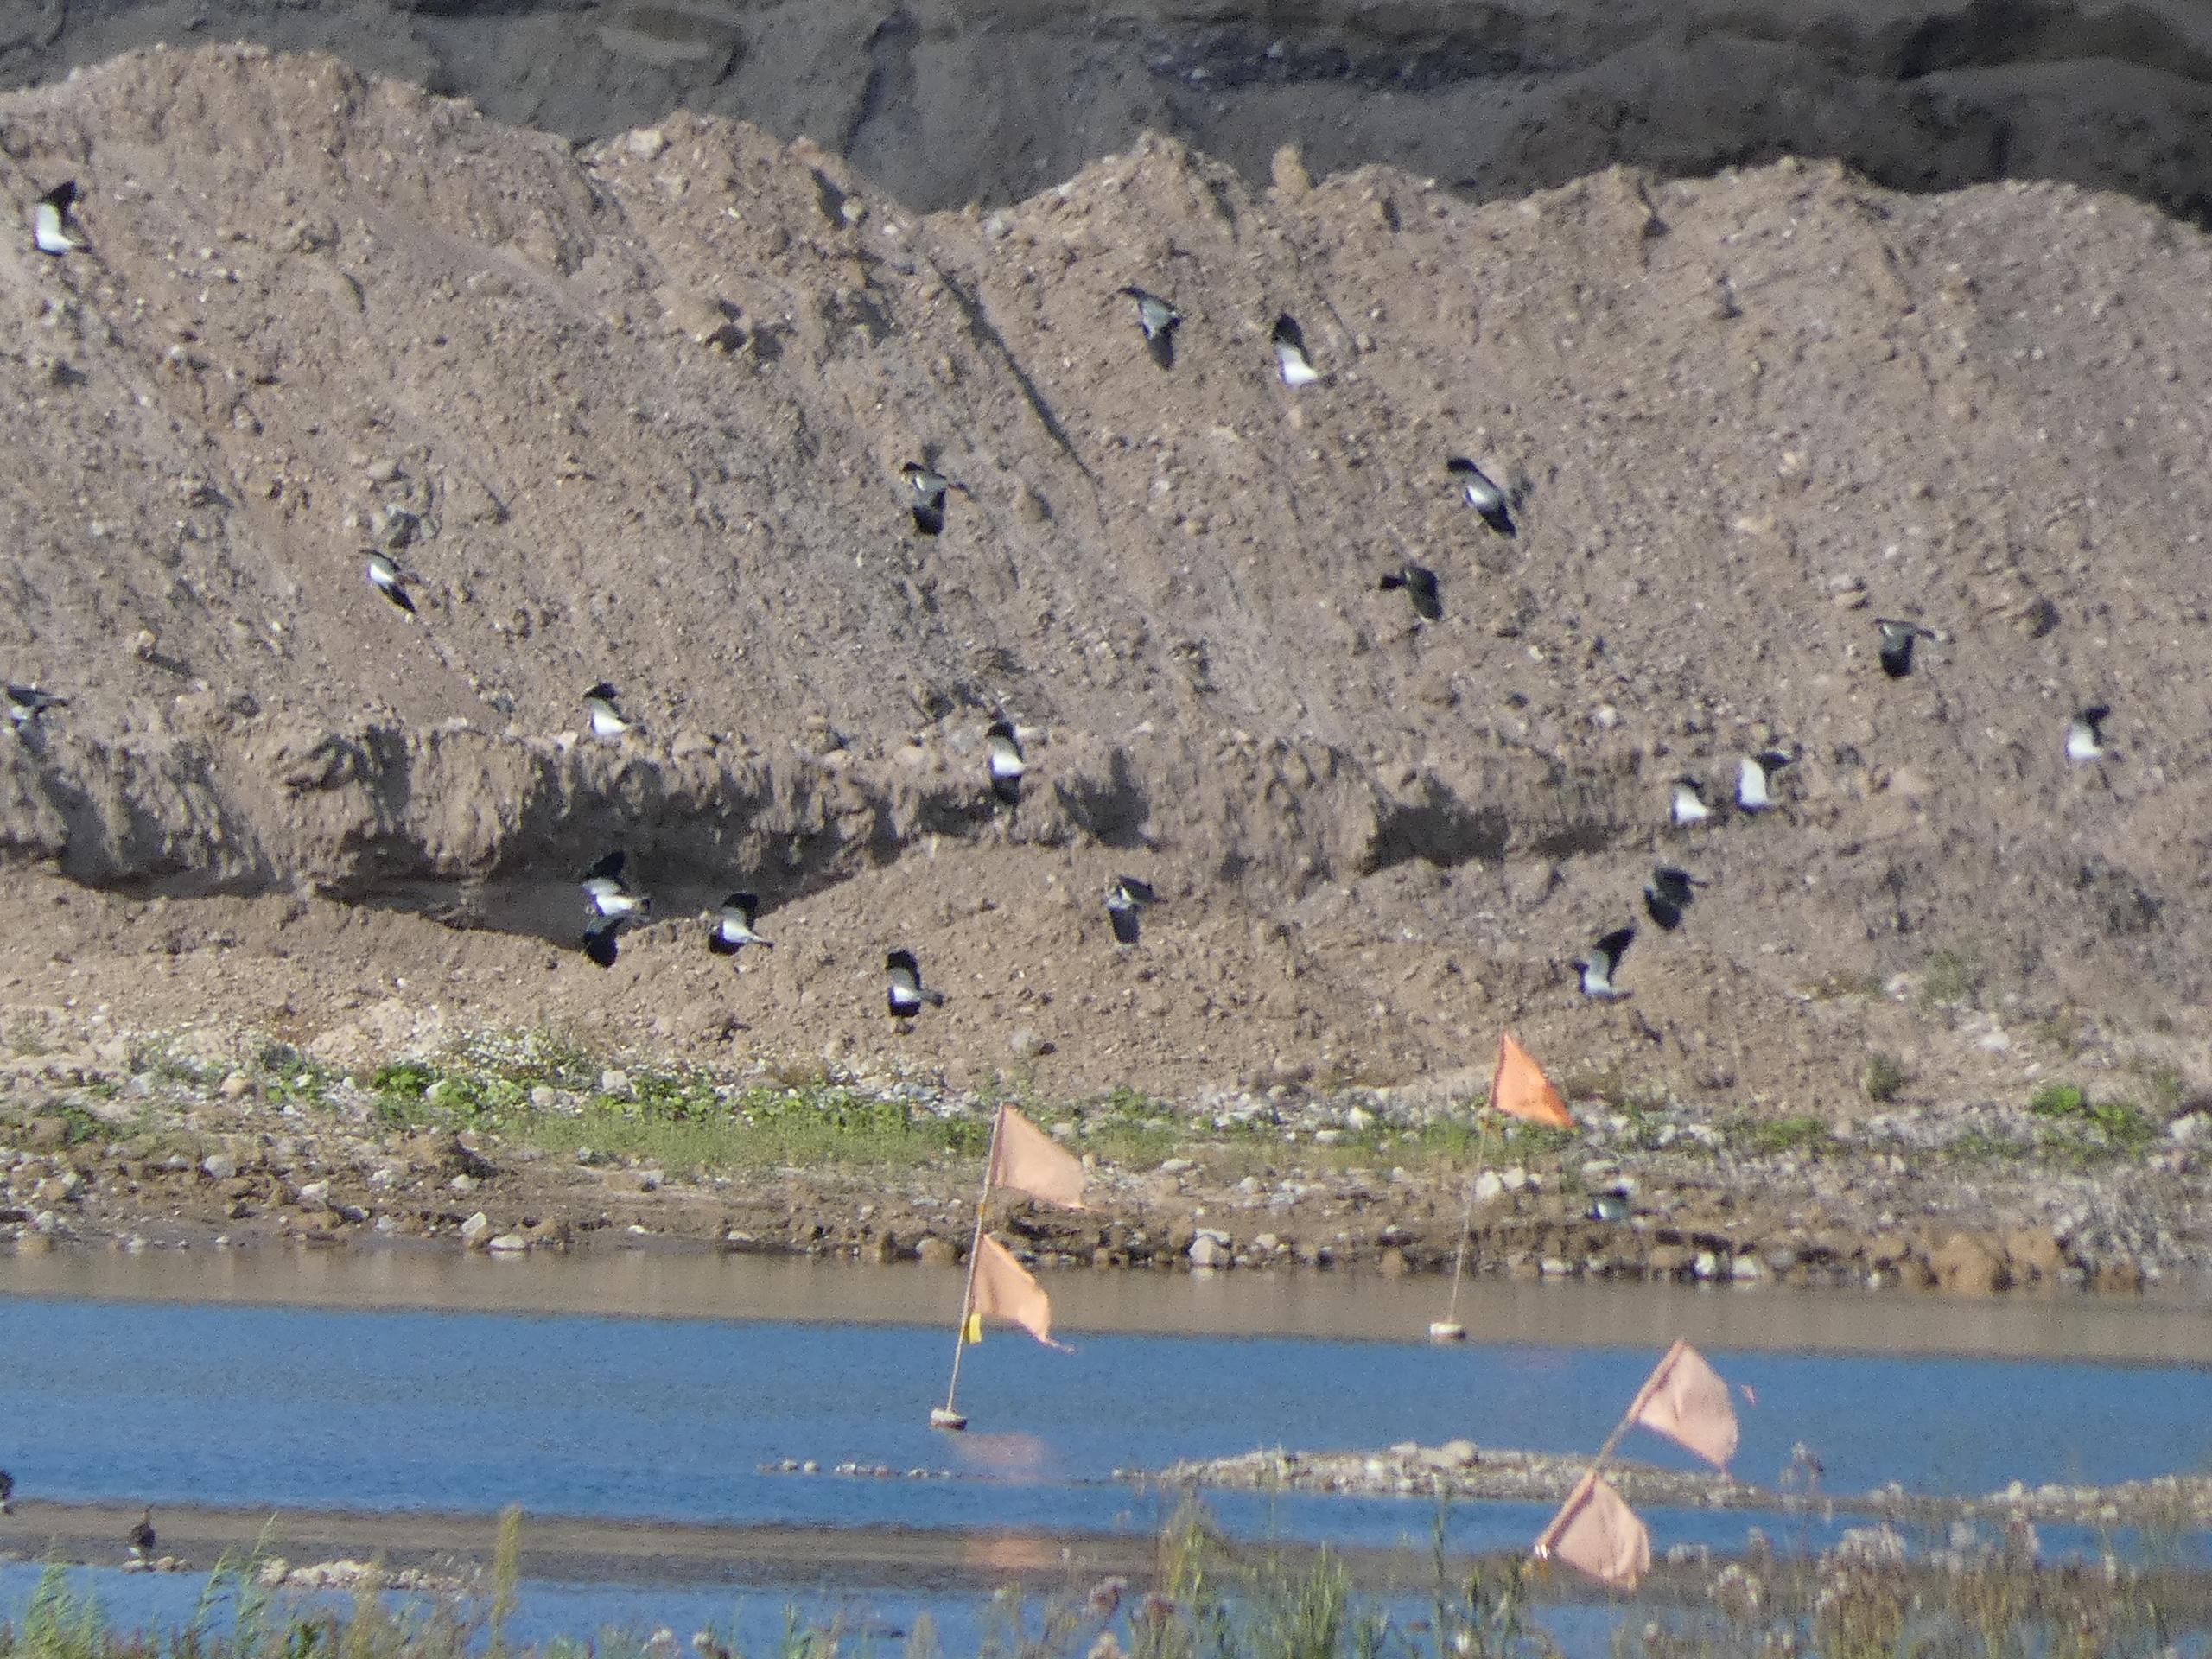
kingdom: Animalia
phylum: Chordata
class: Aves
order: Charadriiformes
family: Charadriidae
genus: Vanellus
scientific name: Vanellus vanellus
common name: Vibe
